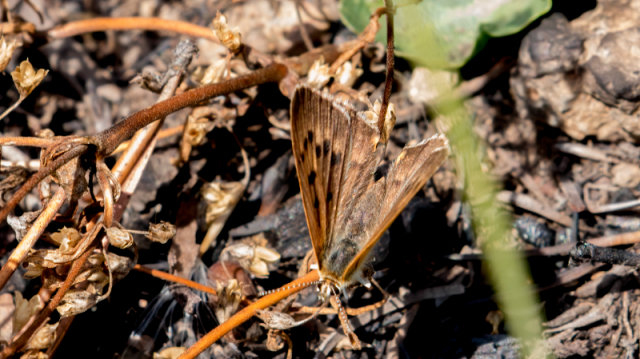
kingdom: Animalia
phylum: Arthropoda
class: Insecta
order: Lepidoptera
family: Sesiidae
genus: Sesia
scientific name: Sesia Lycaena helloides
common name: Purplish Copper
